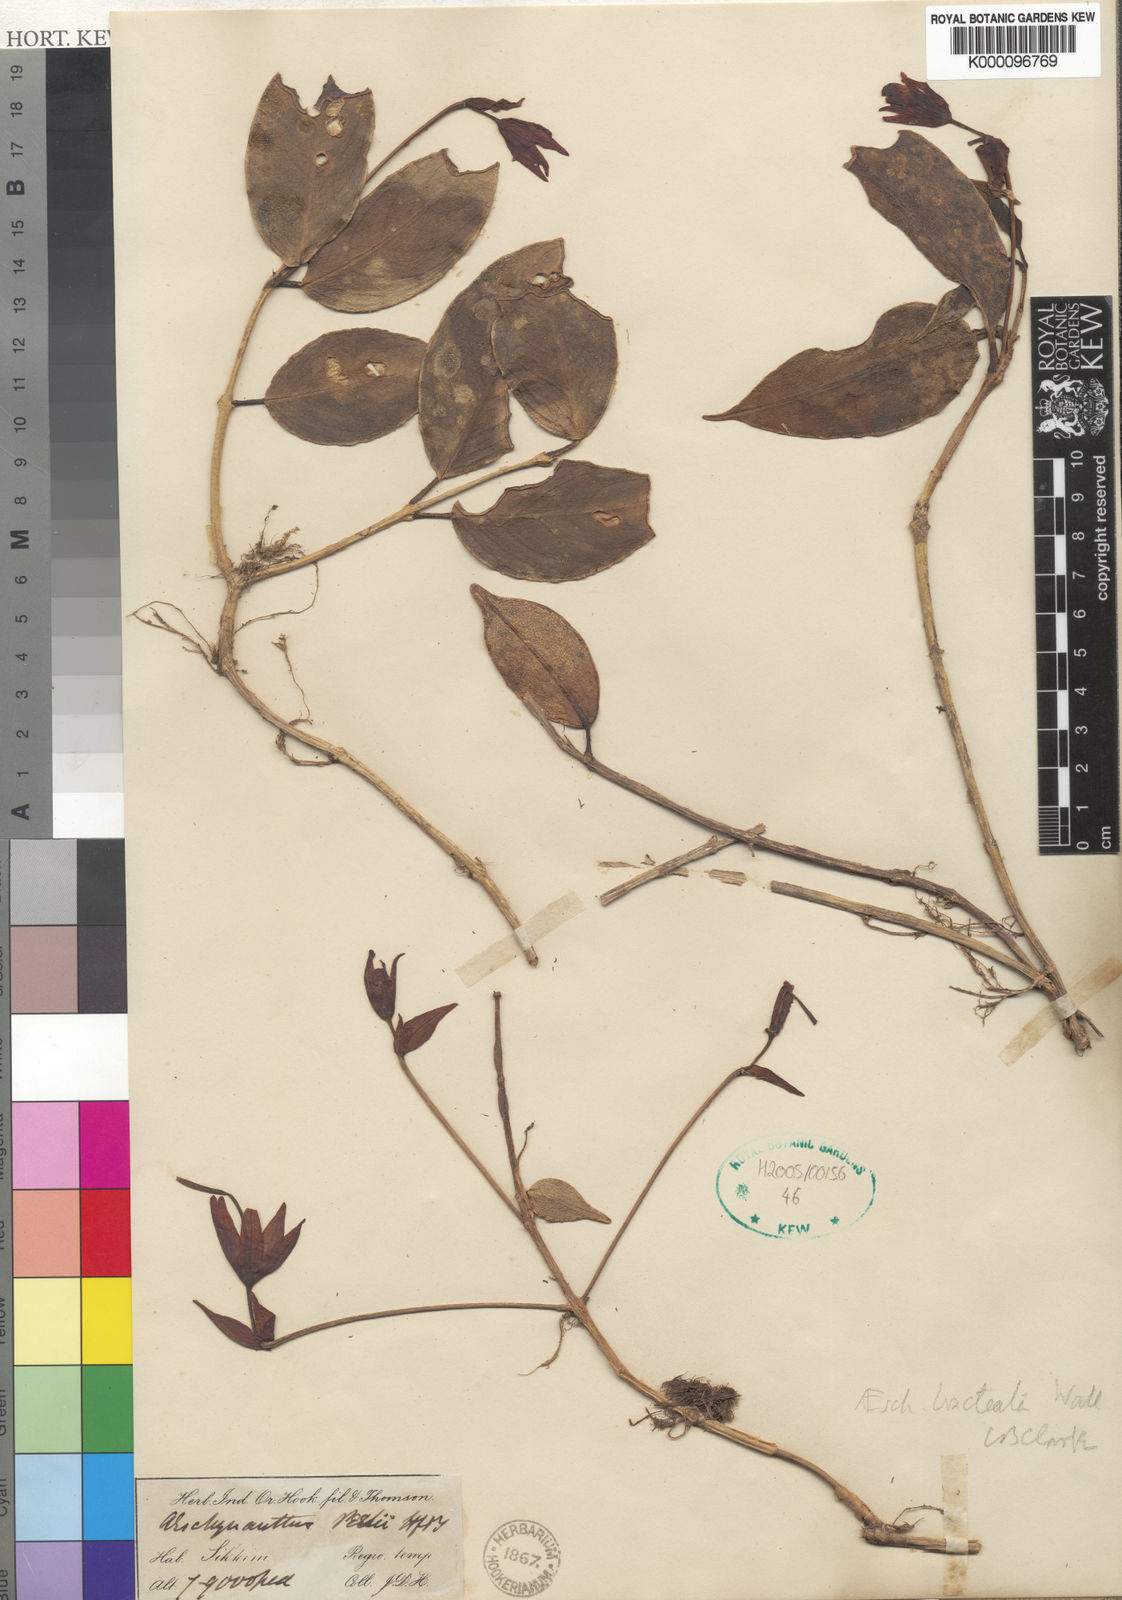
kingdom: Plantae
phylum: Tracheophyta
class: Magnoliopsida
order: Lamiales
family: Gesneriaceae
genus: Aeschynanthus
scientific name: Aeschynanthus bracteatus
